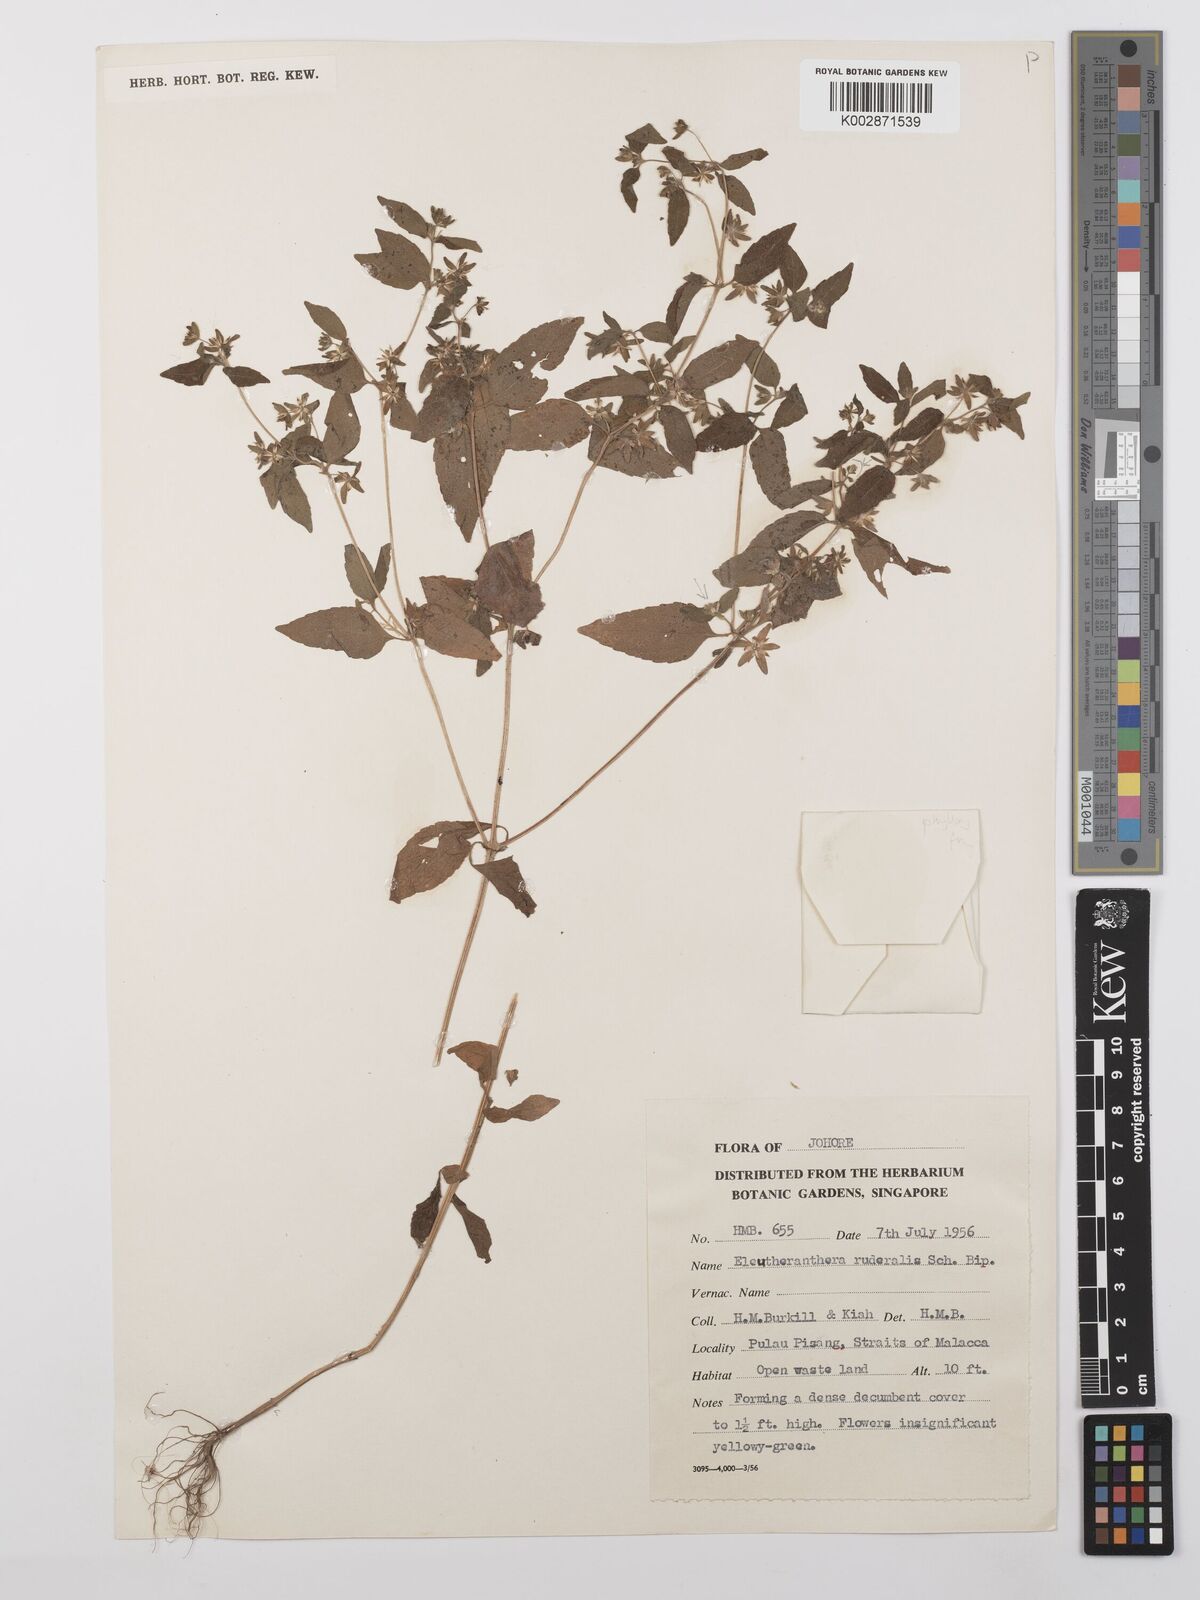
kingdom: Plantae
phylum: Tracheophyta
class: Magnoliopsida
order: Asterales
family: Asteraceae
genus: Eleutheranthera
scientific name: Eleutheranthera ruderalis
